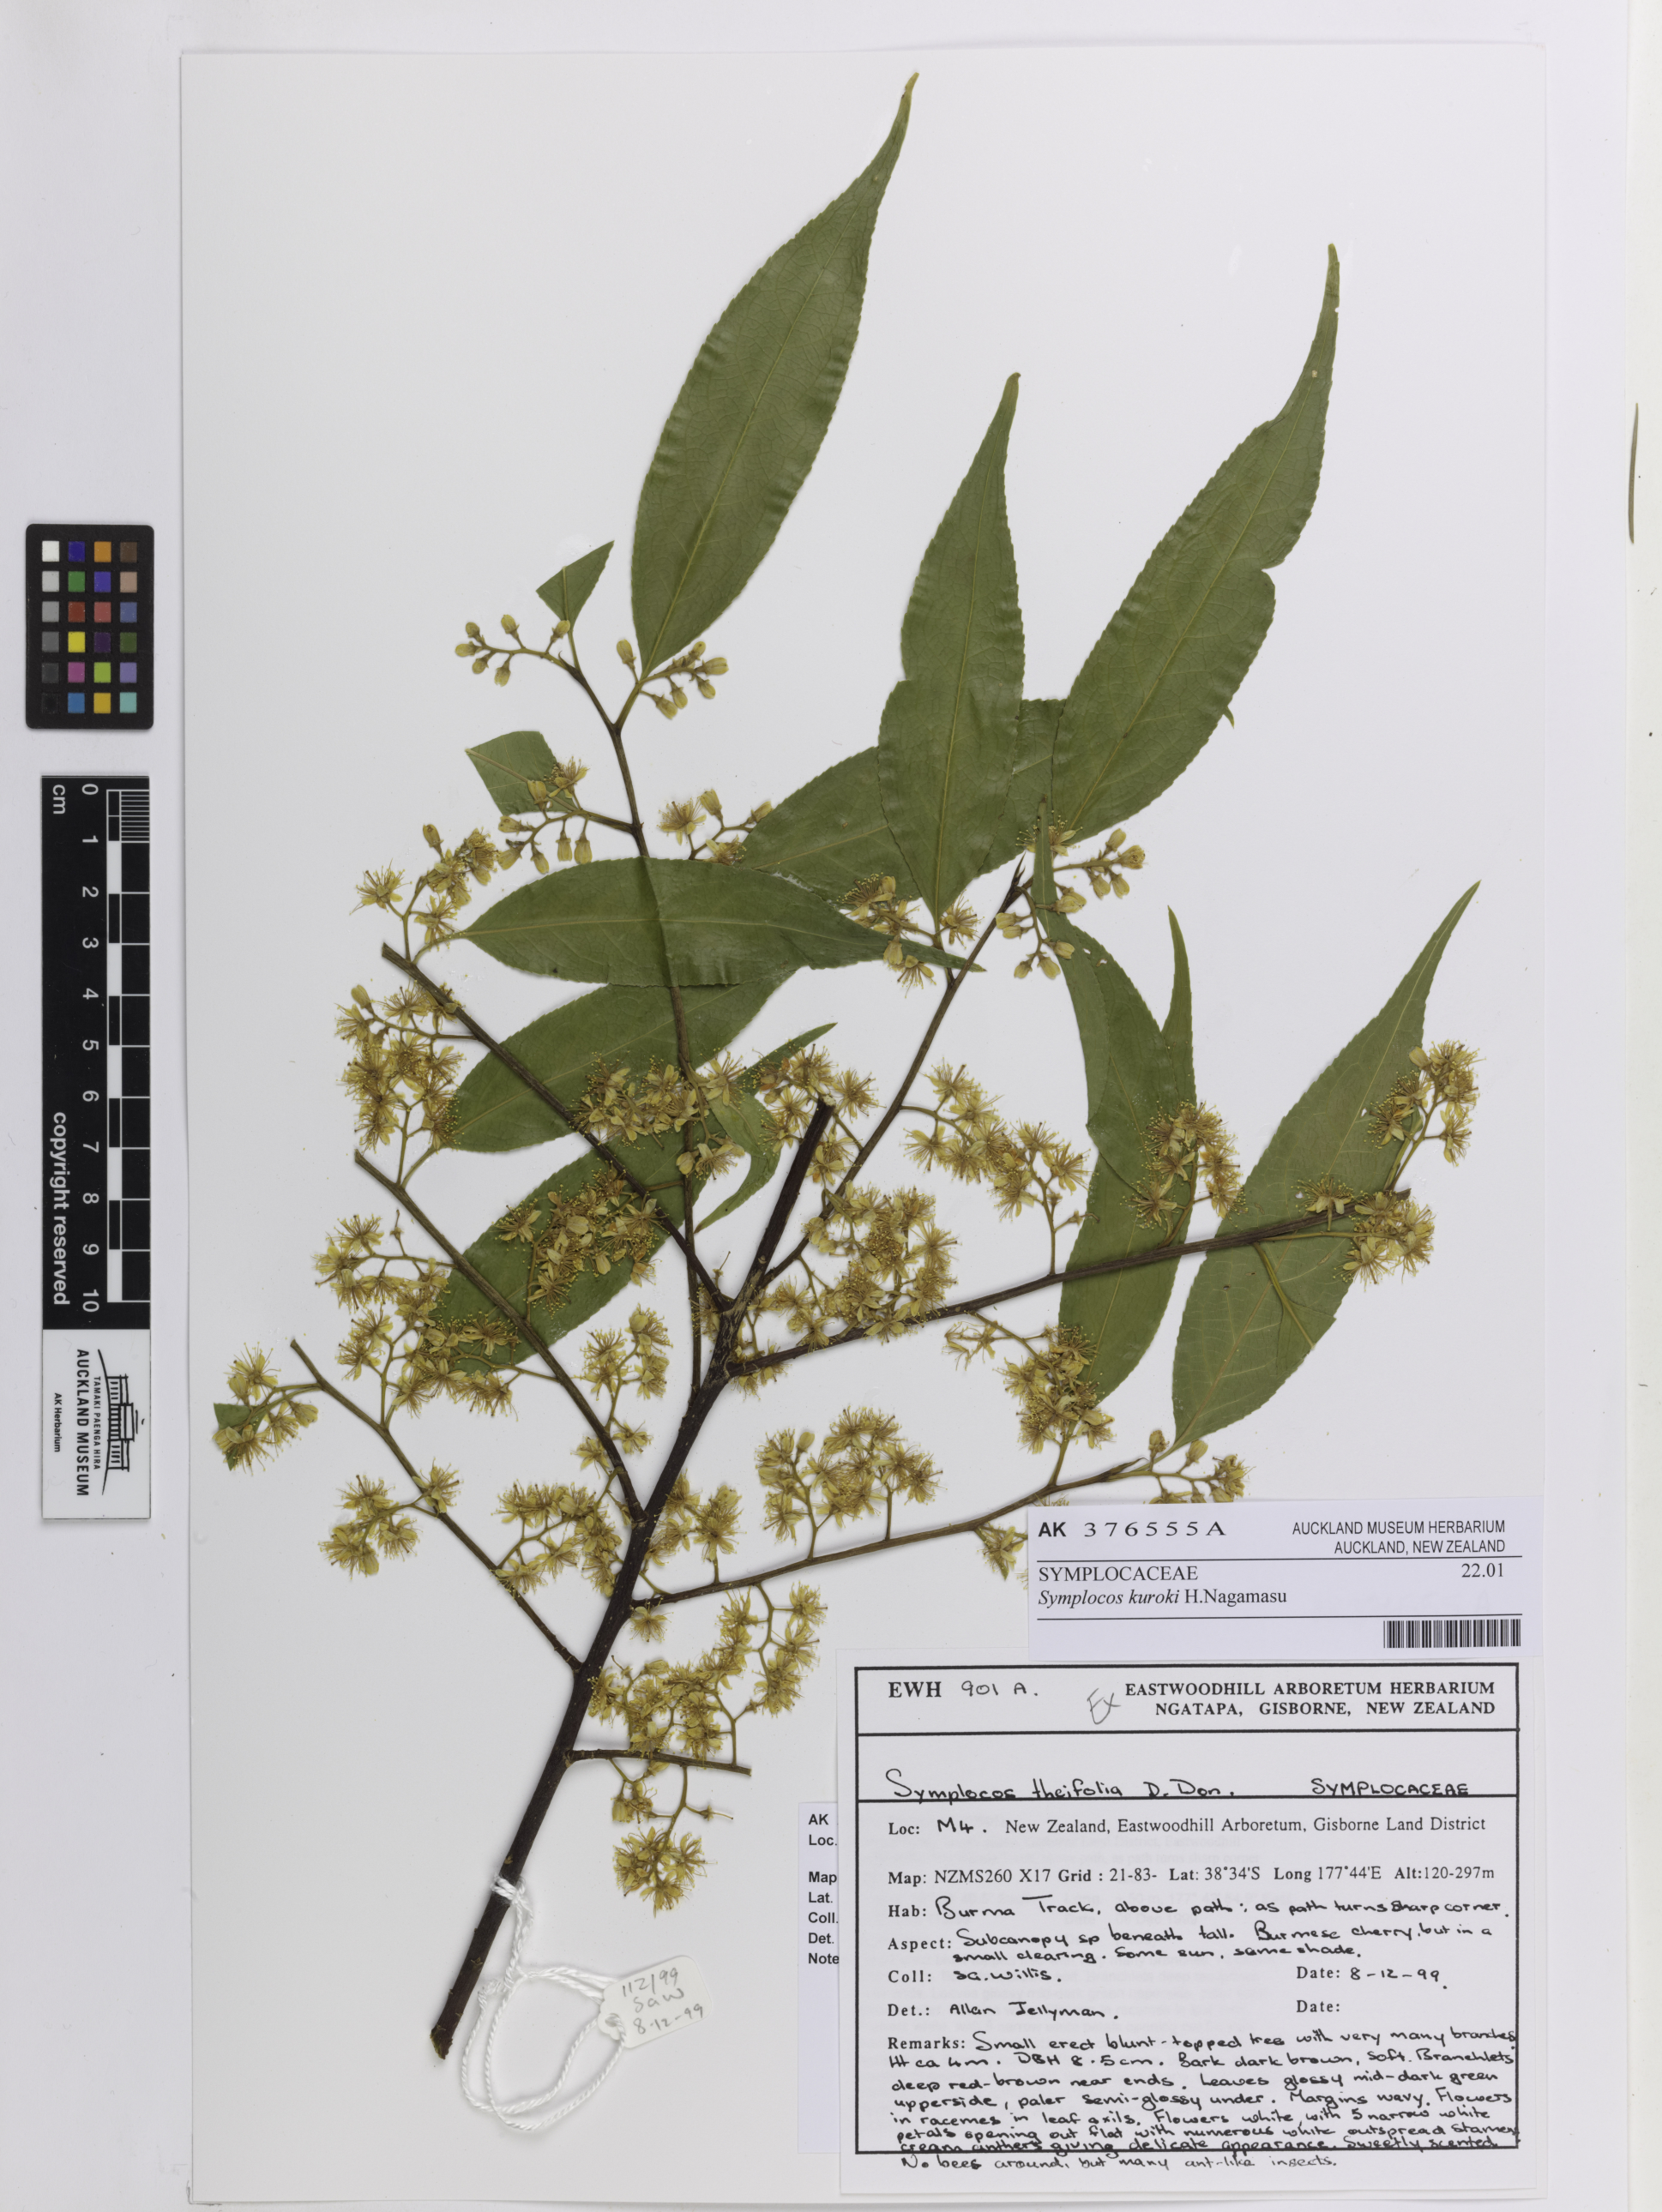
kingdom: Plantae
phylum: Tracheophyta
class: Magnoliopsida
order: Ericales
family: Symplocaceae
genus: Symplocos
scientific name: Symplocos nakaharae
